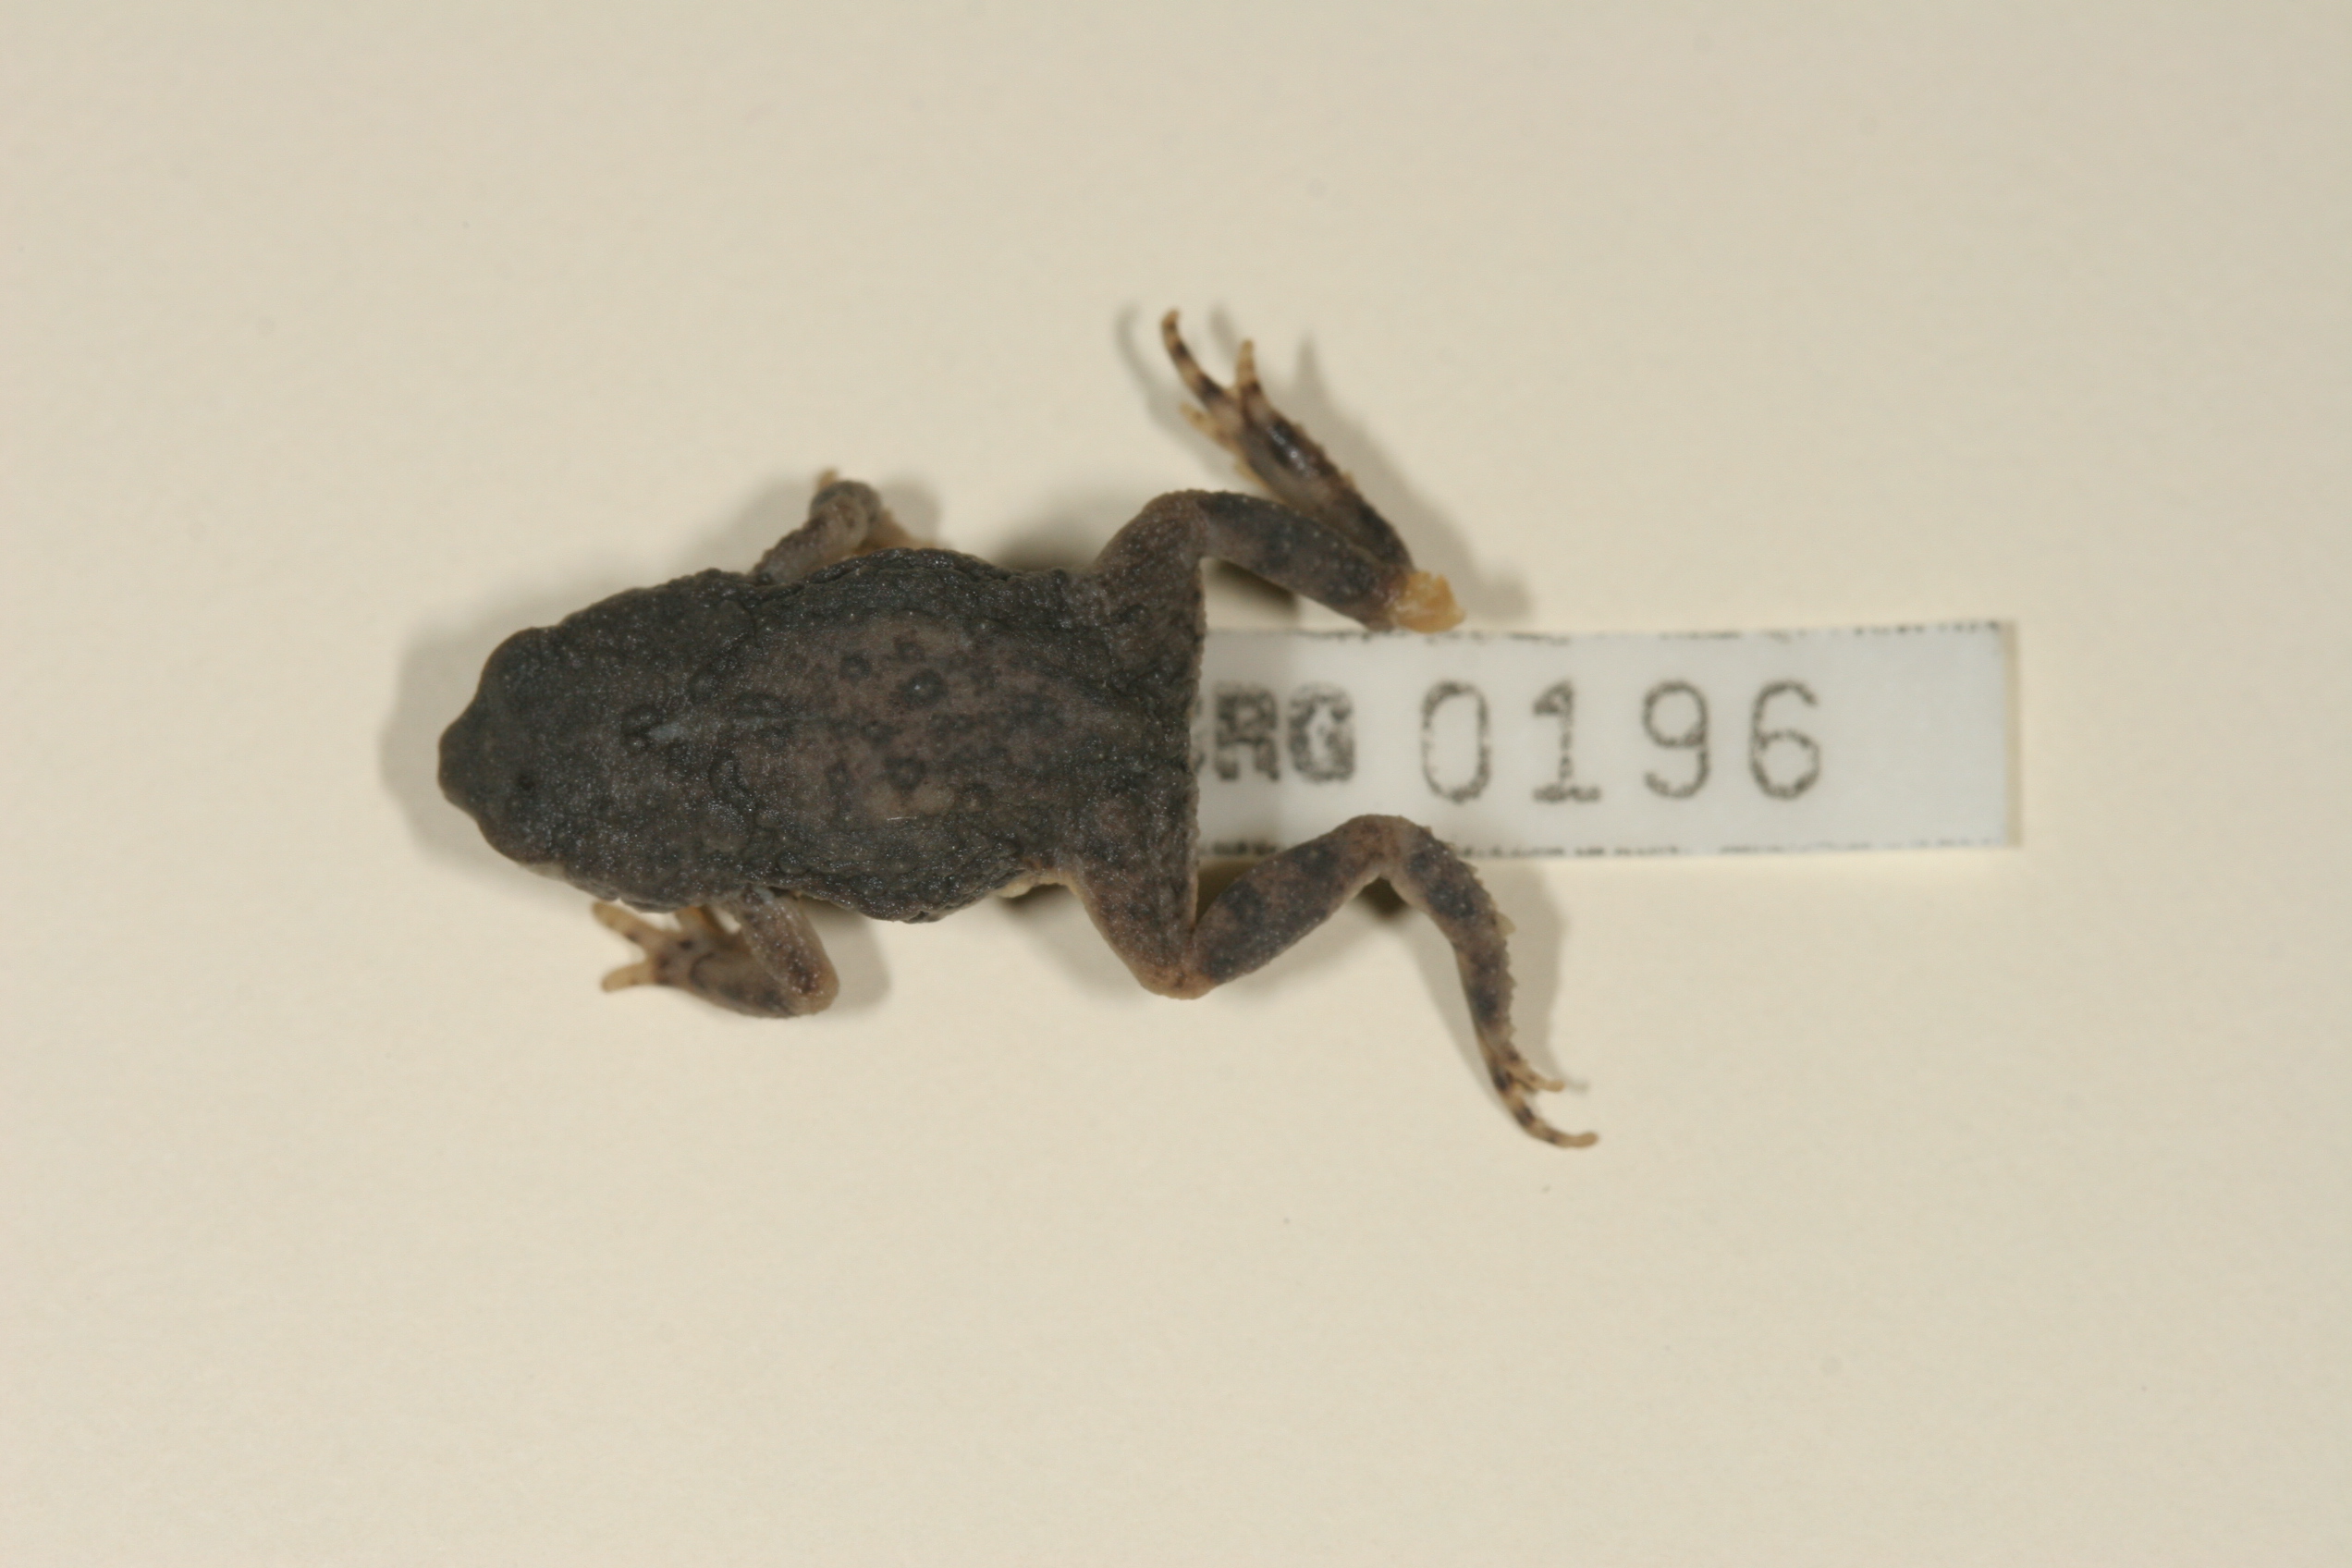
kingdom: Animalia
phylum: Chordata
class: Amphibia
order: Anura
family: Bufonidae
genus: Poyntonophrynus
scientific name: Poyntonophrynus vertebralis
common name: Southern pygmy toad
